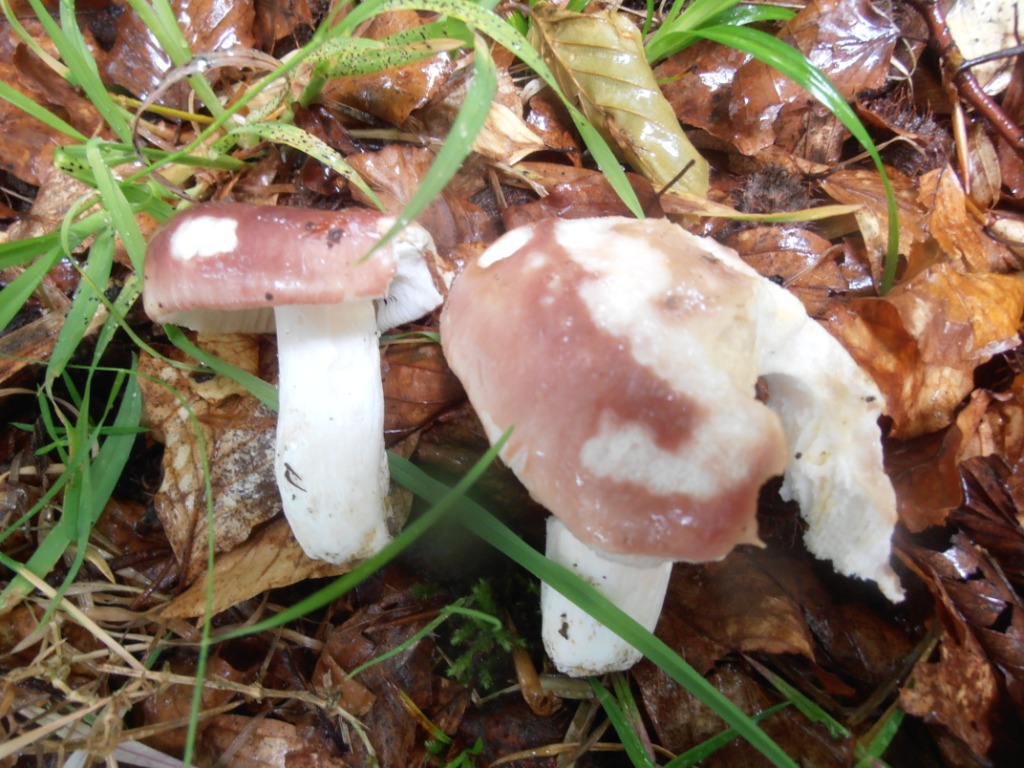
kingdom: Fungi
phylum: Basidiomycota
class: Agaricomycetes
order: Russulales
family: Russulaceae
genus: Russula
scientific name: Russula vesca
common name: spiselig skørhat
